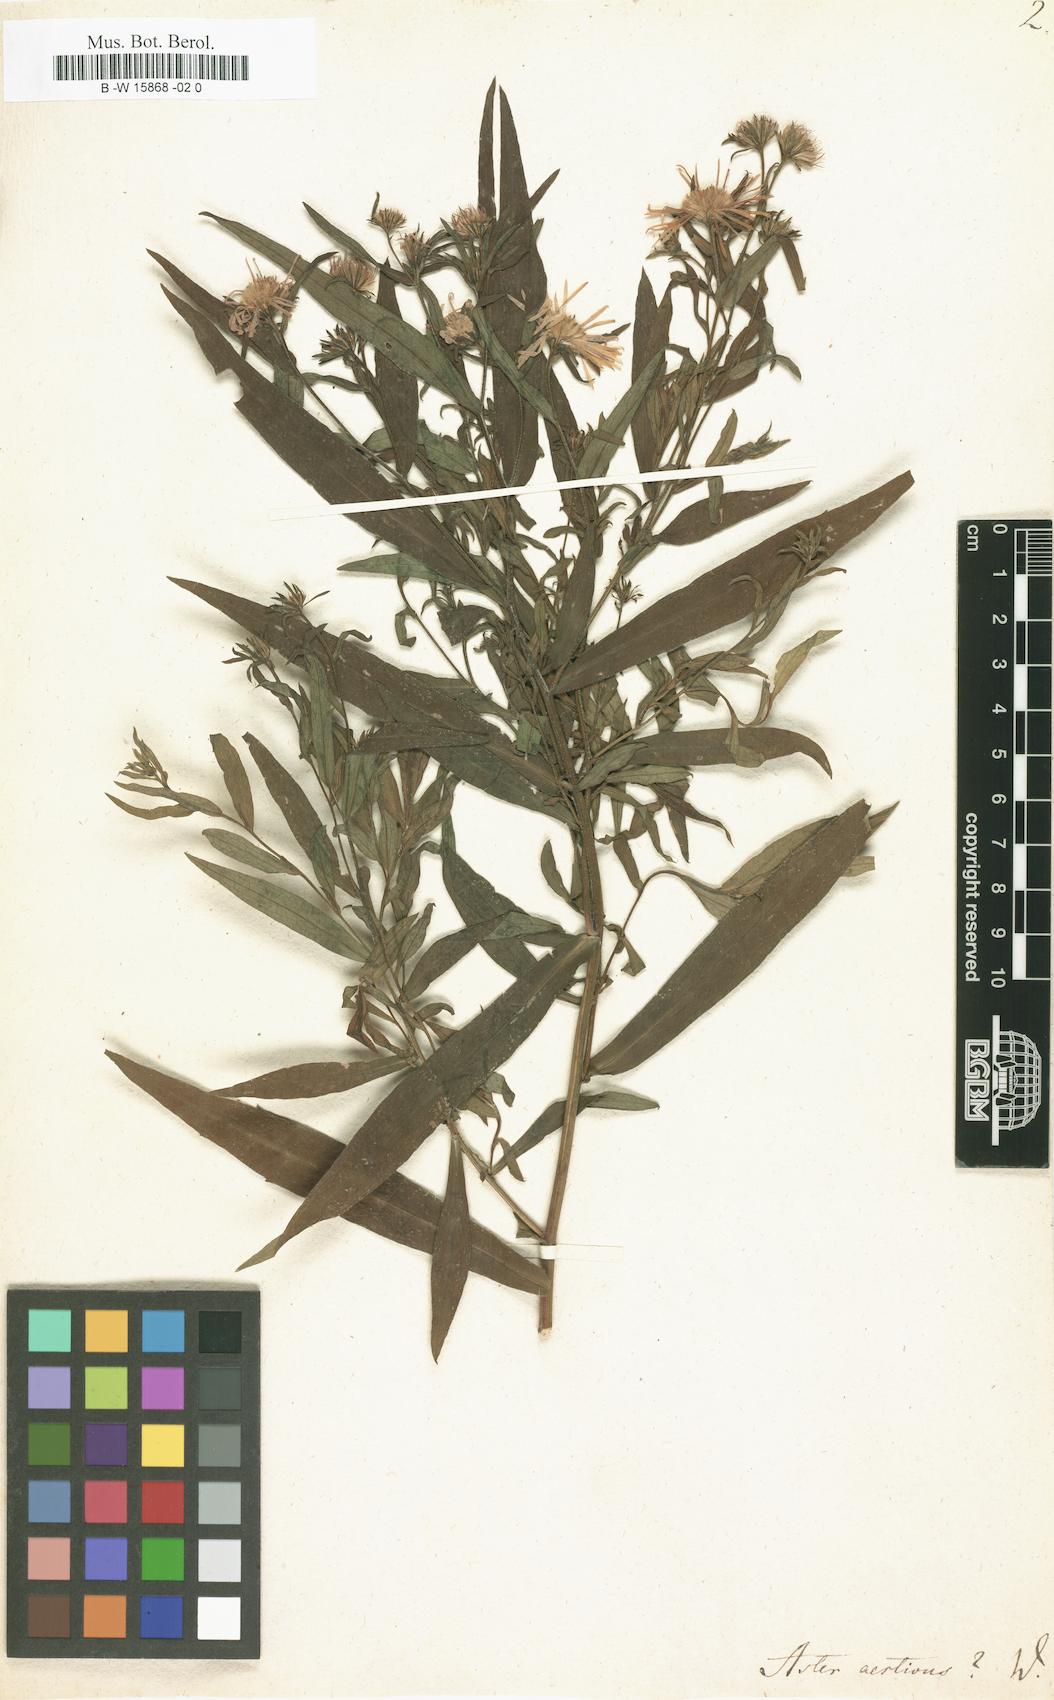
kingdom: Plantae
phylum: Tracheophyta
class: Magnoliopsida
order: Asterales
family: Asteraceae
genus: Aster
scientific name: Aster aestivus
